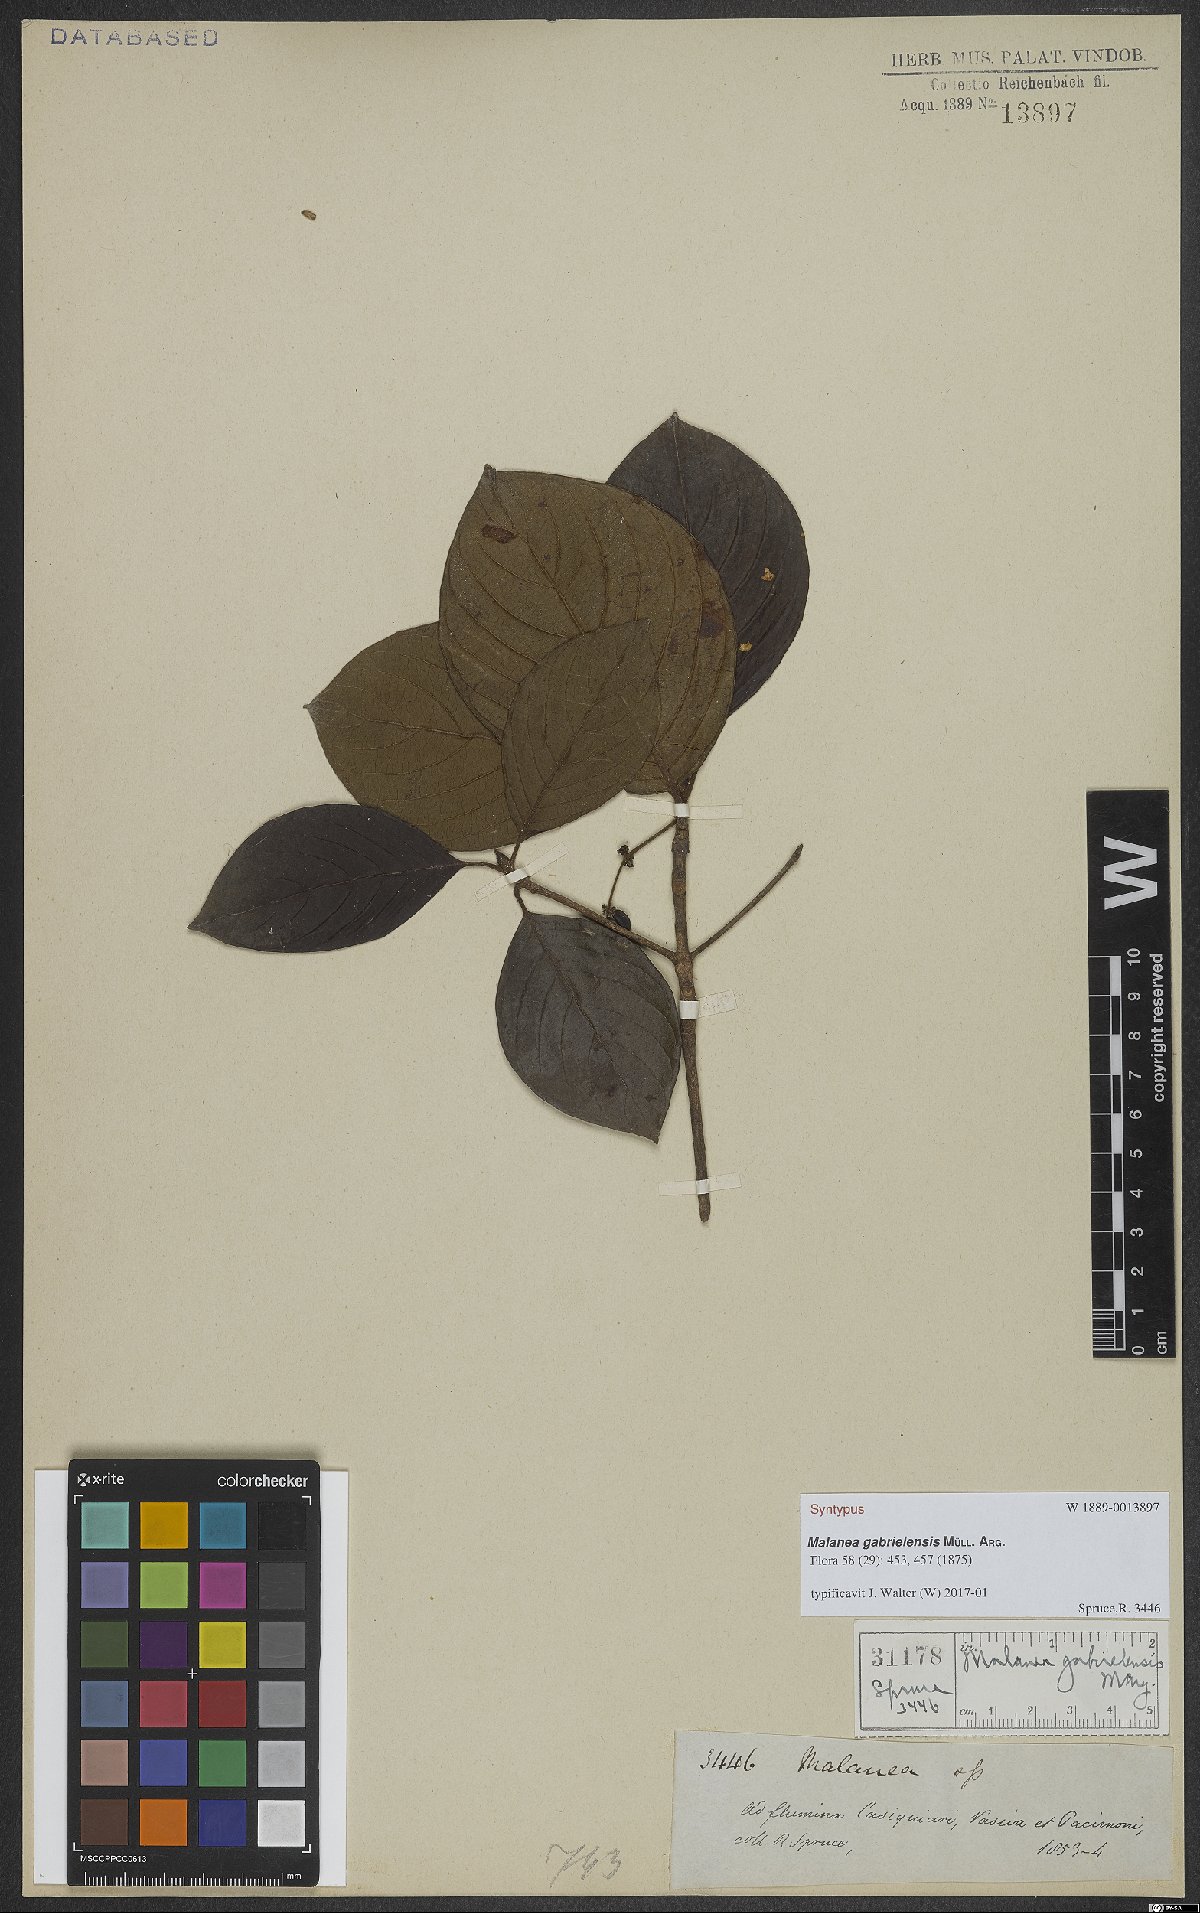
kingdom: Plantae
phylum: Tracheophyta
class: Magnoliopsida
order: Gentianales
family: Rubiaceae
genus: Malanea
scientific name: Malanea gabrielensis
